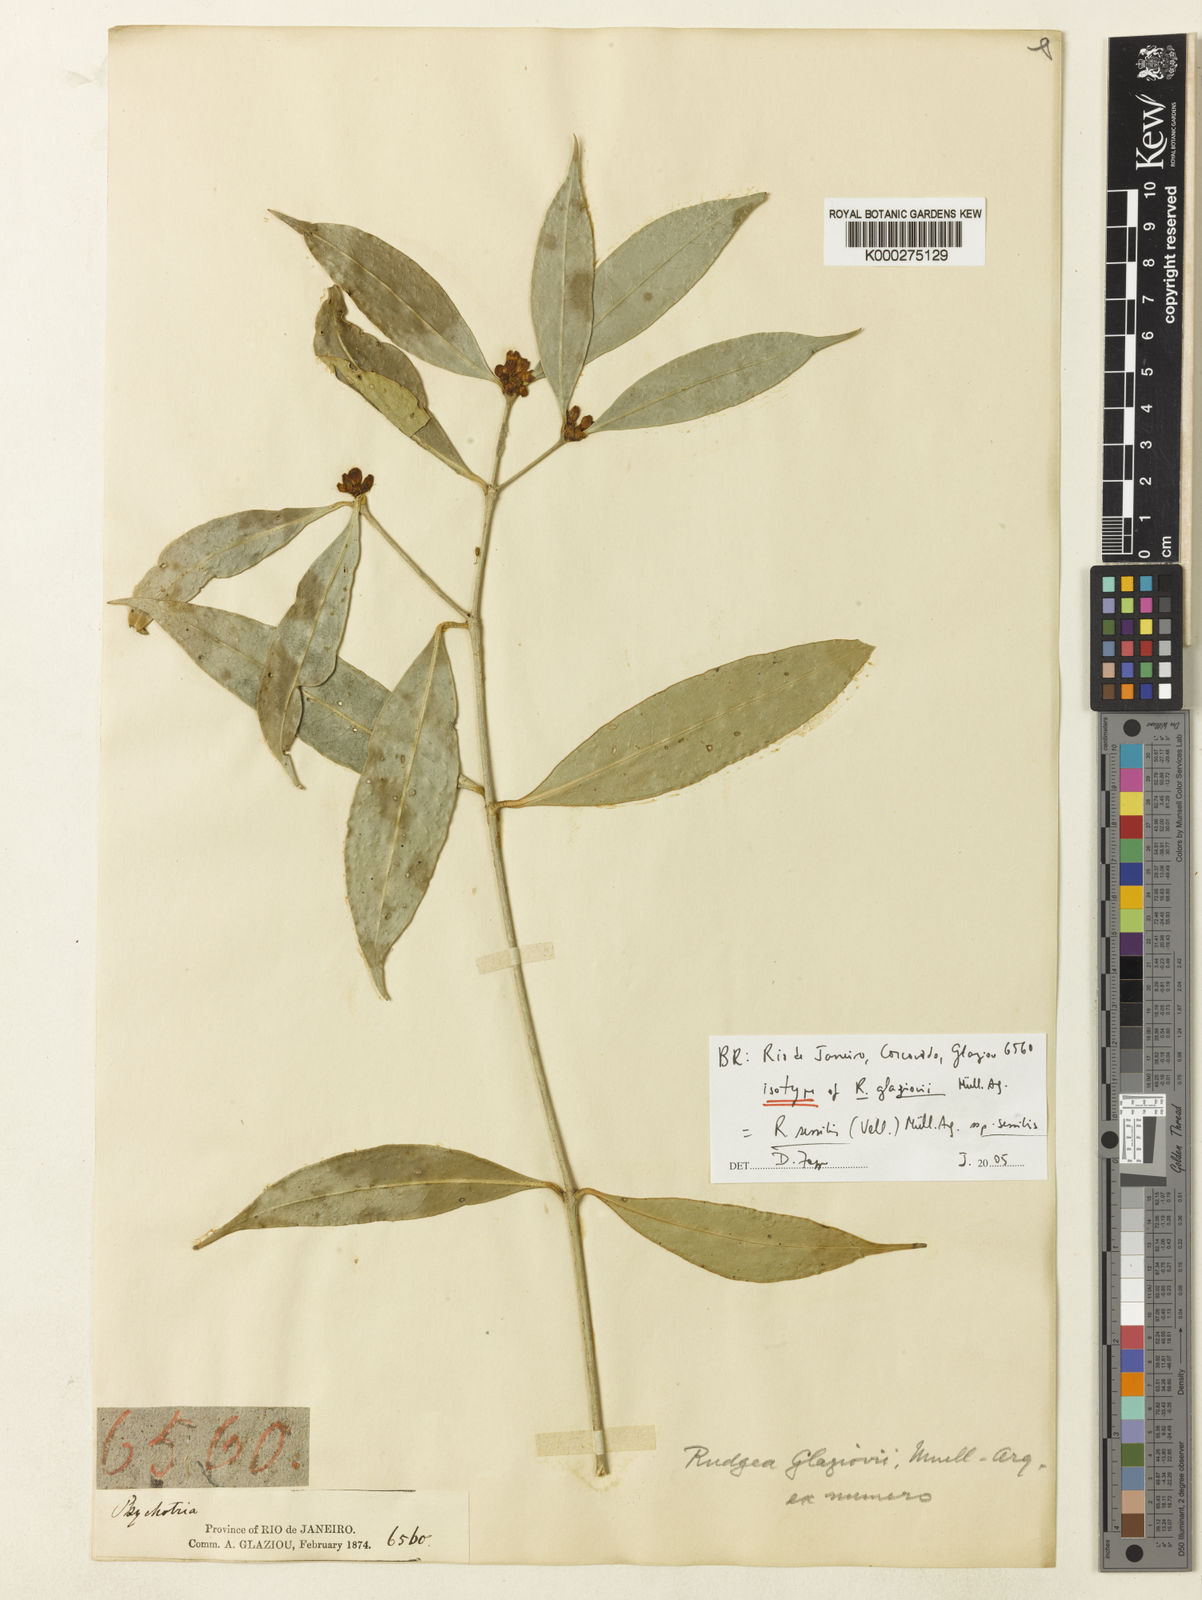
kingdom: Plantae
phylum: Tracheophyta
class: Magnoliopsida
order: Gentianales
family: Rubiaceae
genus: Rudgea
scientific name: Rudgea
